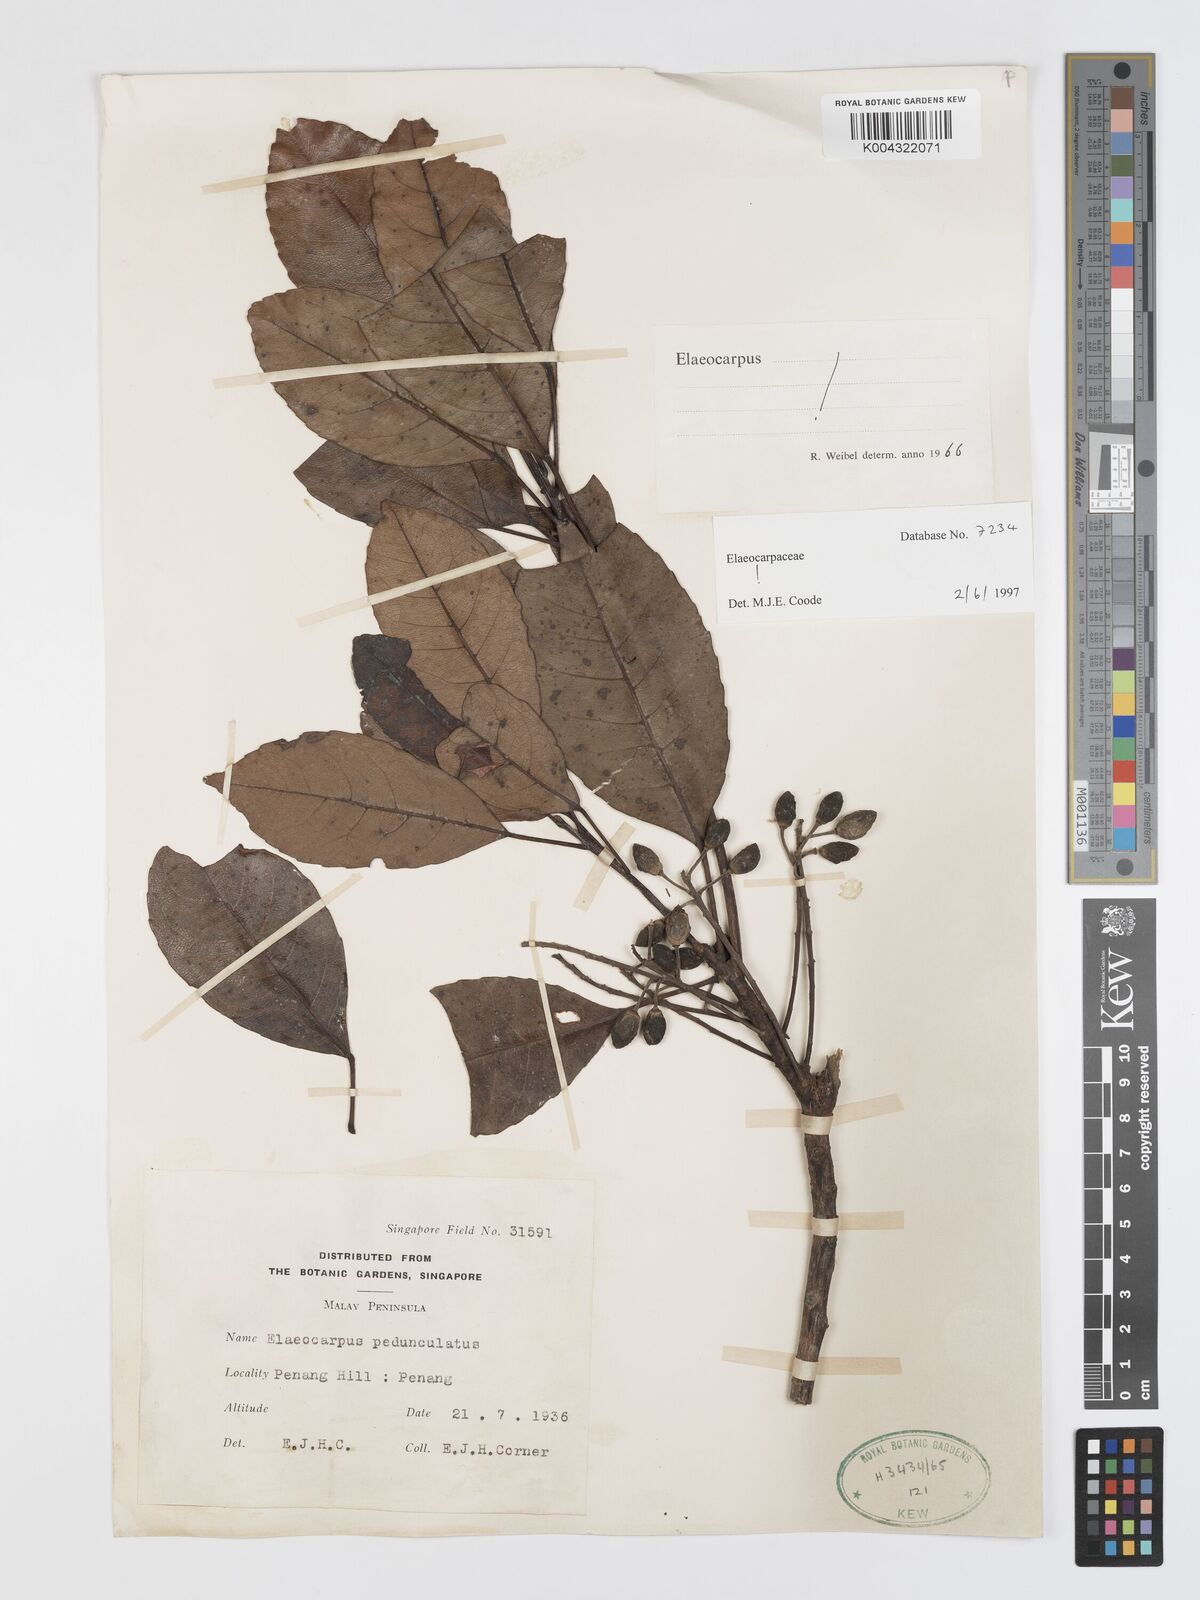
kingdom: Plantae
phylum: Tracheophyta
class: Magnoliopsida
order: Oxalidales
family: Elaeocarpaceae
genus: Elaeocarpus
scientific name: Elaeocarpus pedunculatus
